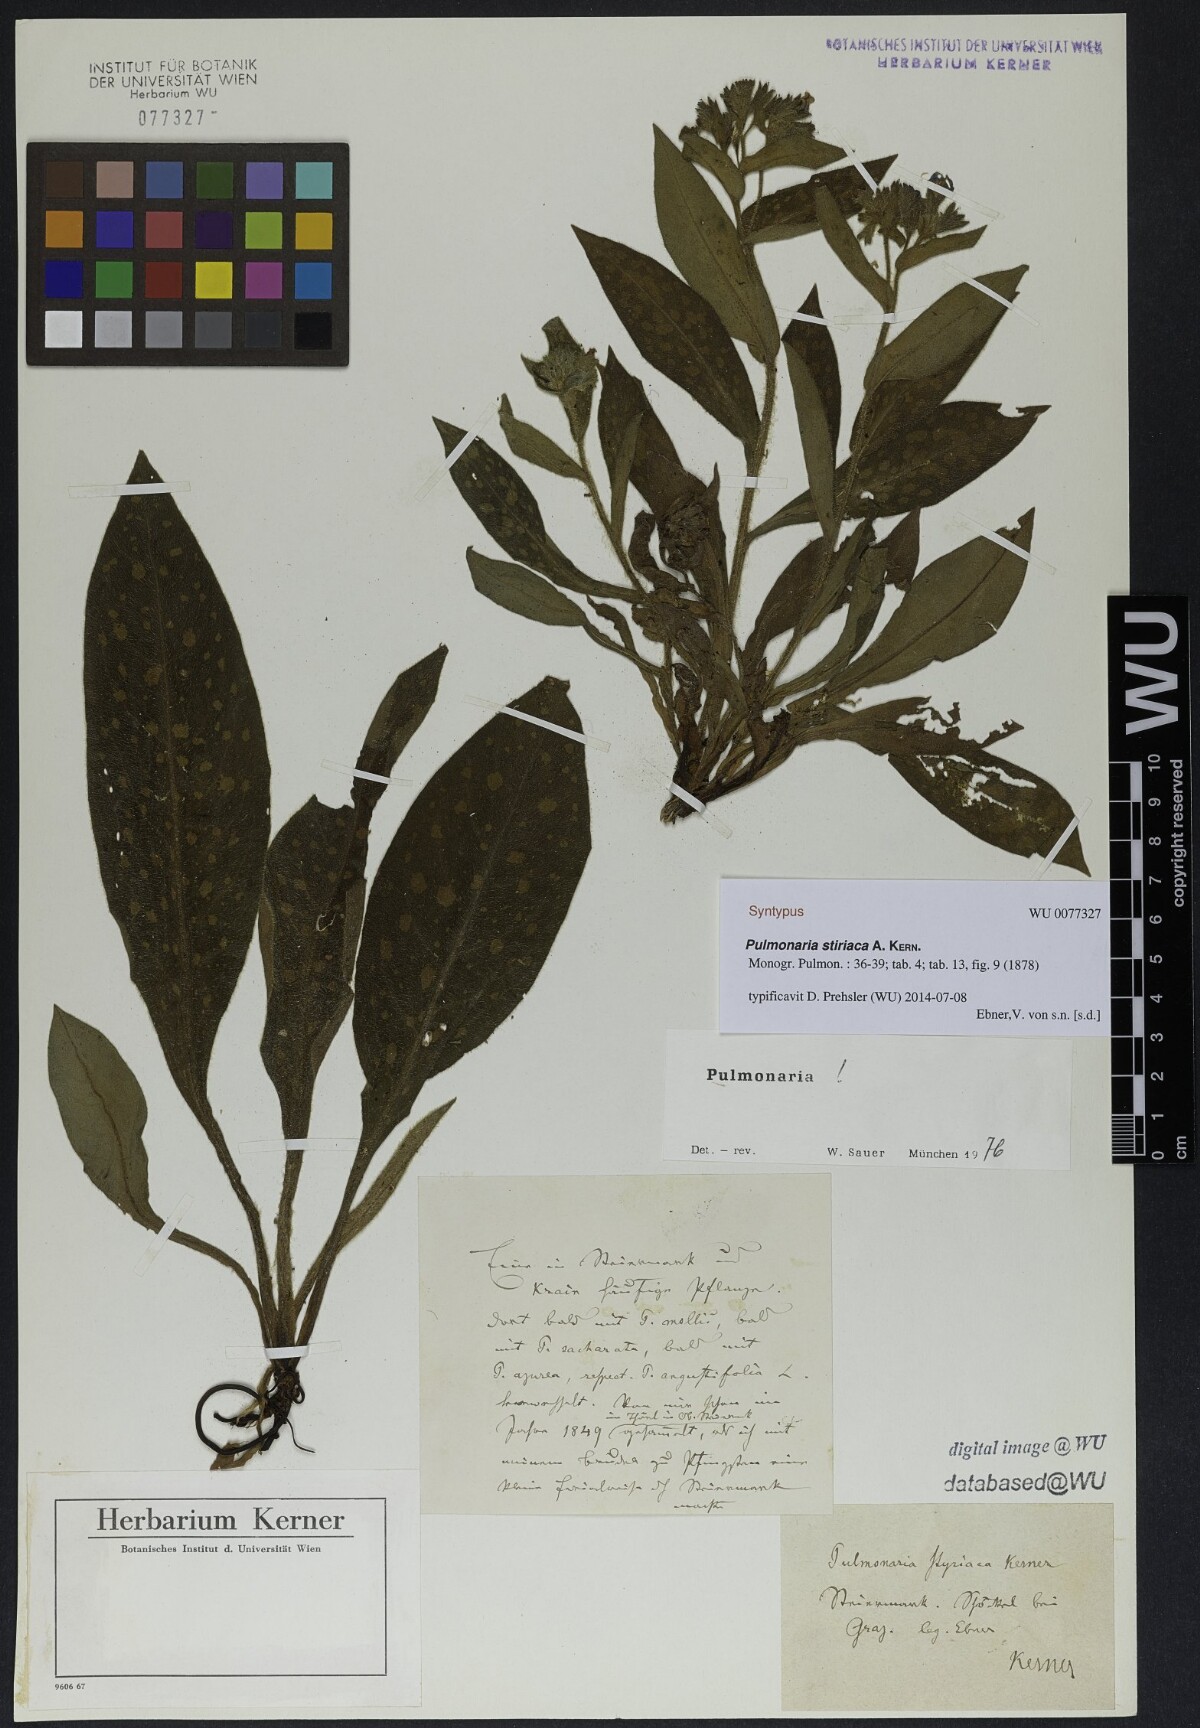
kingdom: Plantae
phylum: Tracheophyta
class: Magnoliopsida
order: Boraginales
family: Boraginaceae
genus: Pulmonaria
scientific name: Pulmonaria stiriaca
